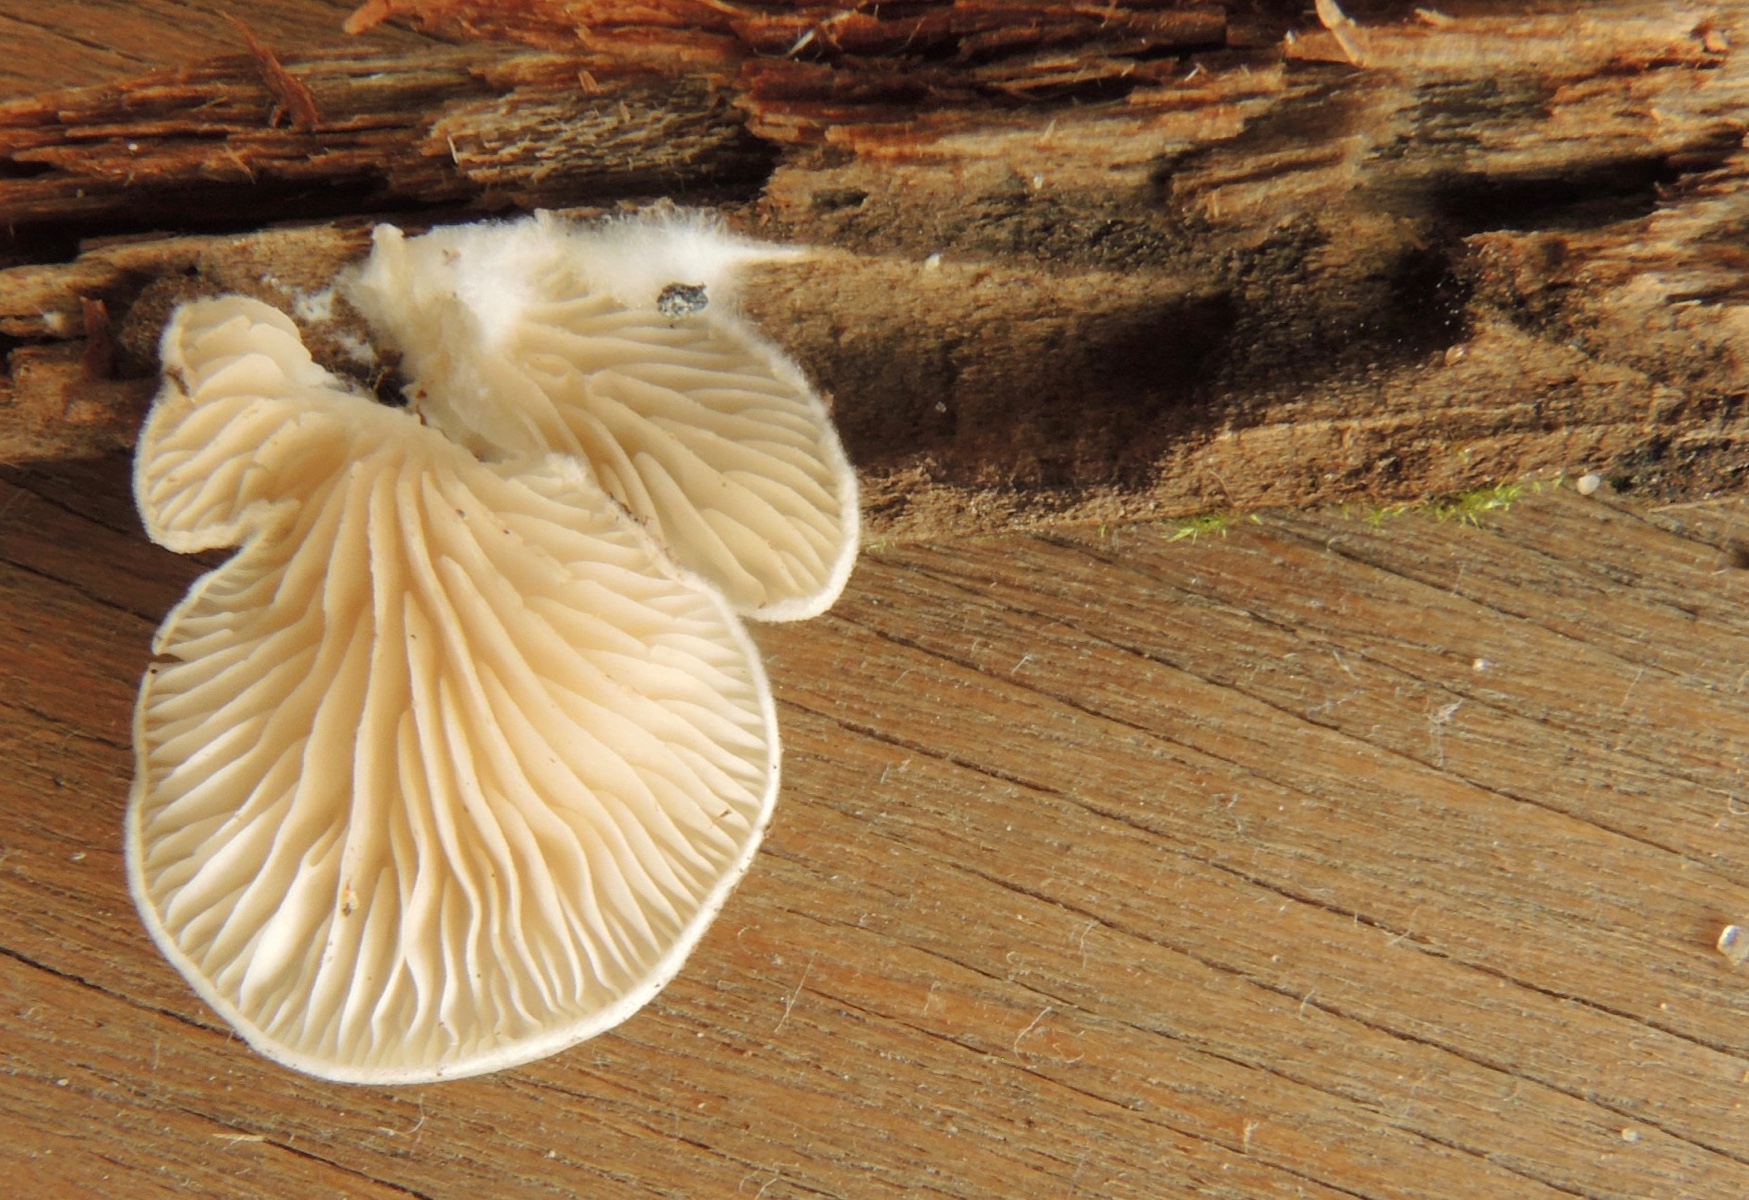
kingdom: Fungi
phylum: Basidiomycota
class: Agaricomycetes
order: Agaricales
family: Entolomataceae
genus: Clitopilus
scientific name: Clitopilus hobsonii
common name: Miller's oysterling
